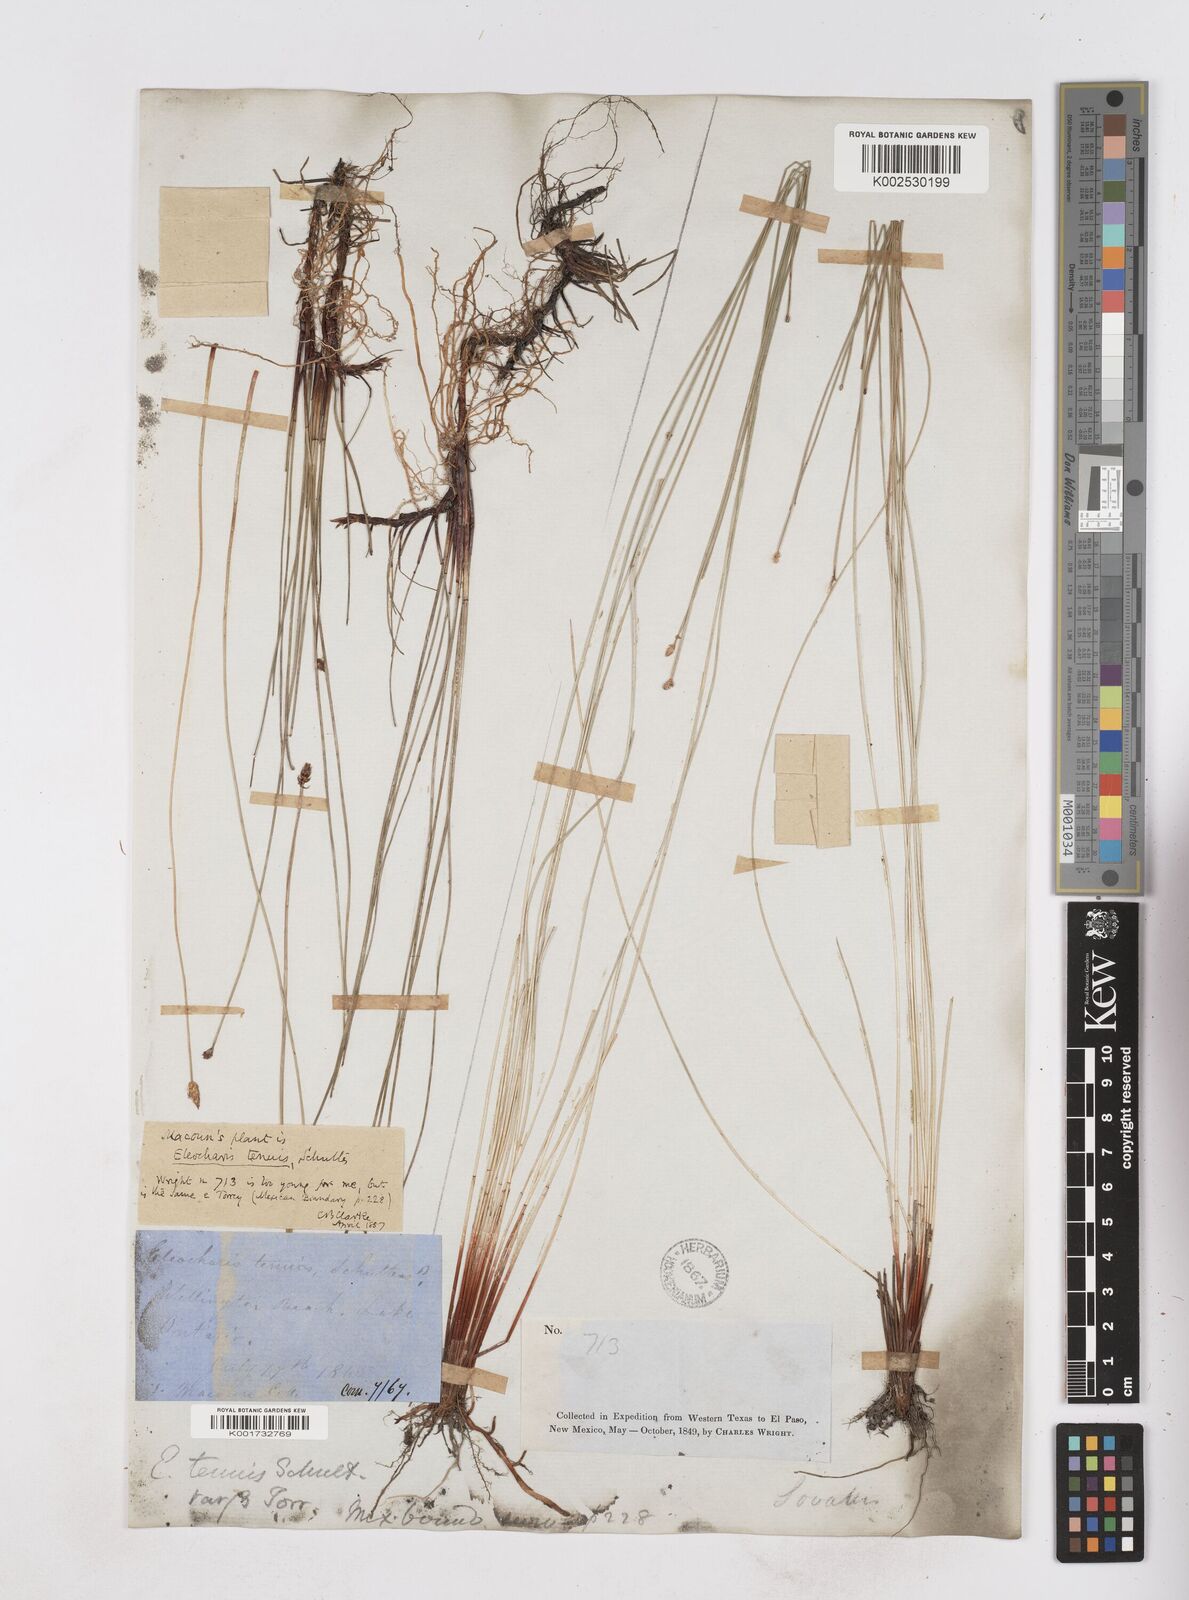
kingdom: Plantae
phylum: Tracheophyta
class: Liliopsida
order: Poales
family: Cyperaceae
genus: Eleocharis
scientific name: Eleocharis tenuis
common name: Dog's hair
